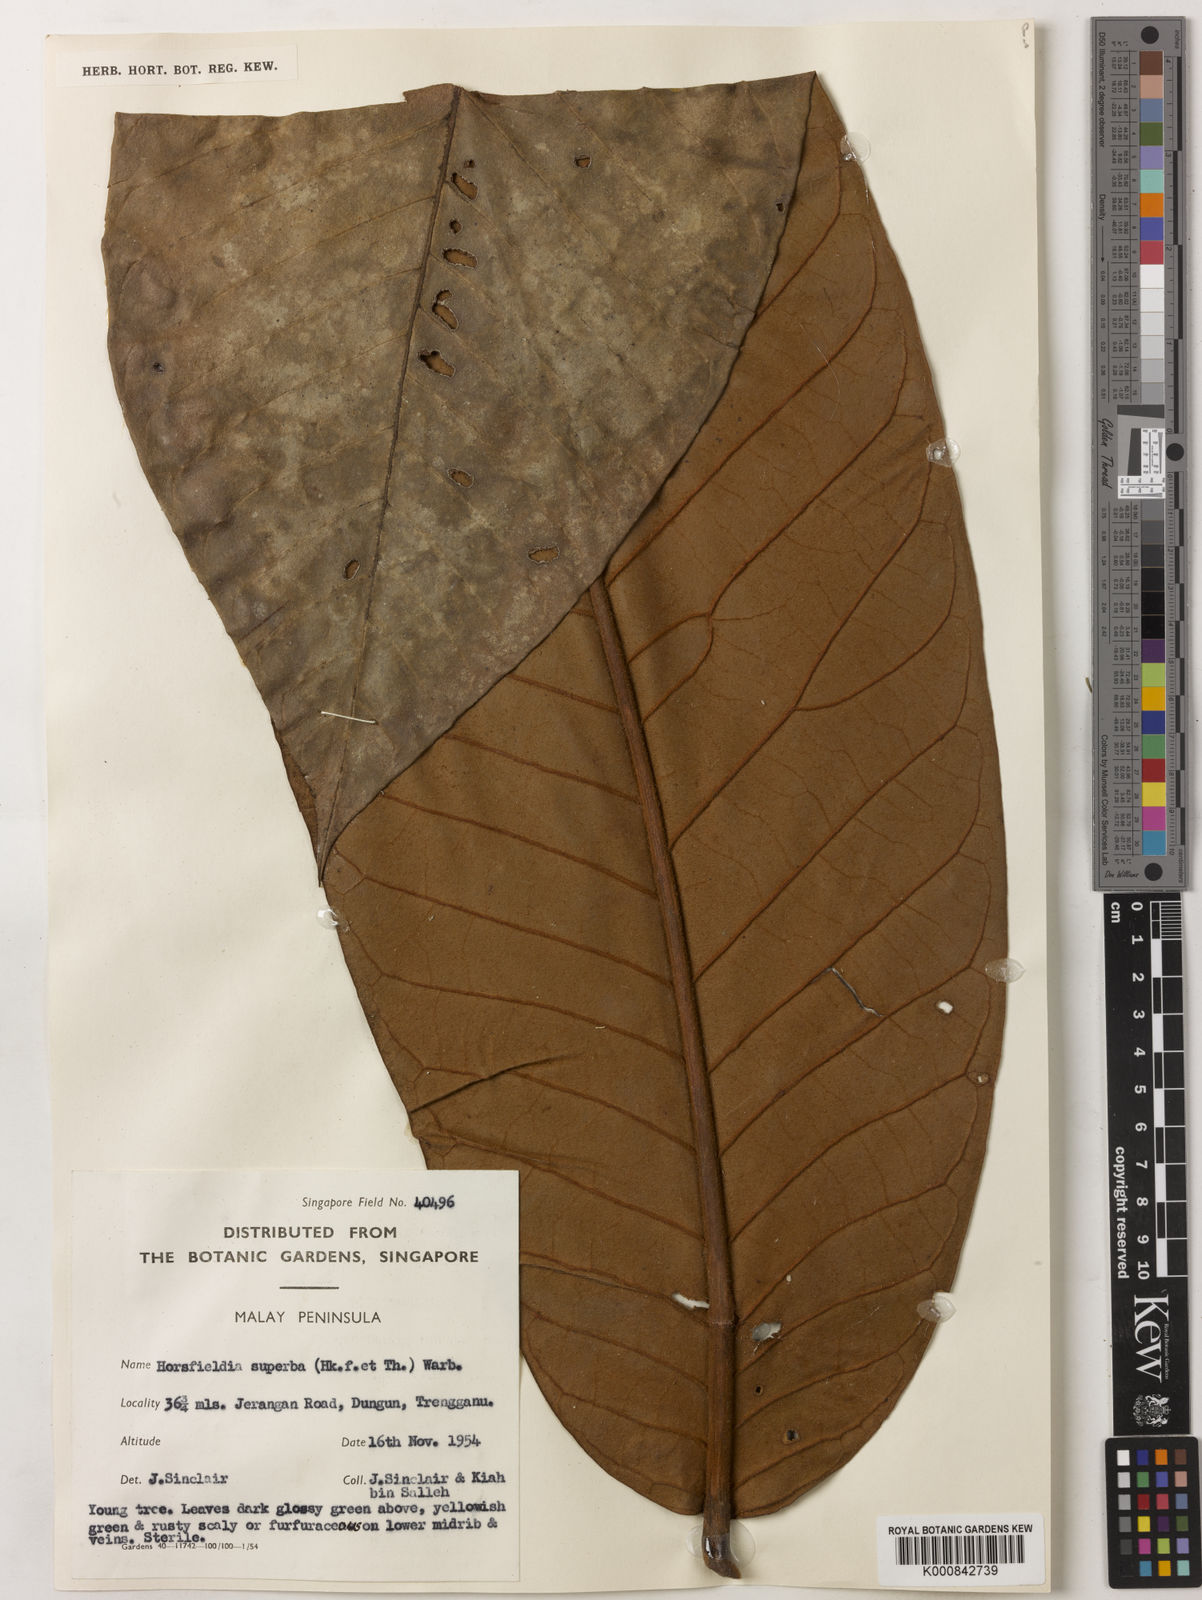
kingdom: Plantae
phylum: Tracheophyta
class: Magnoliopsida
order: Magnoliales
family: Myristicaceae
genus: Horsfieldia
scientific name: Horsfieldia superba
